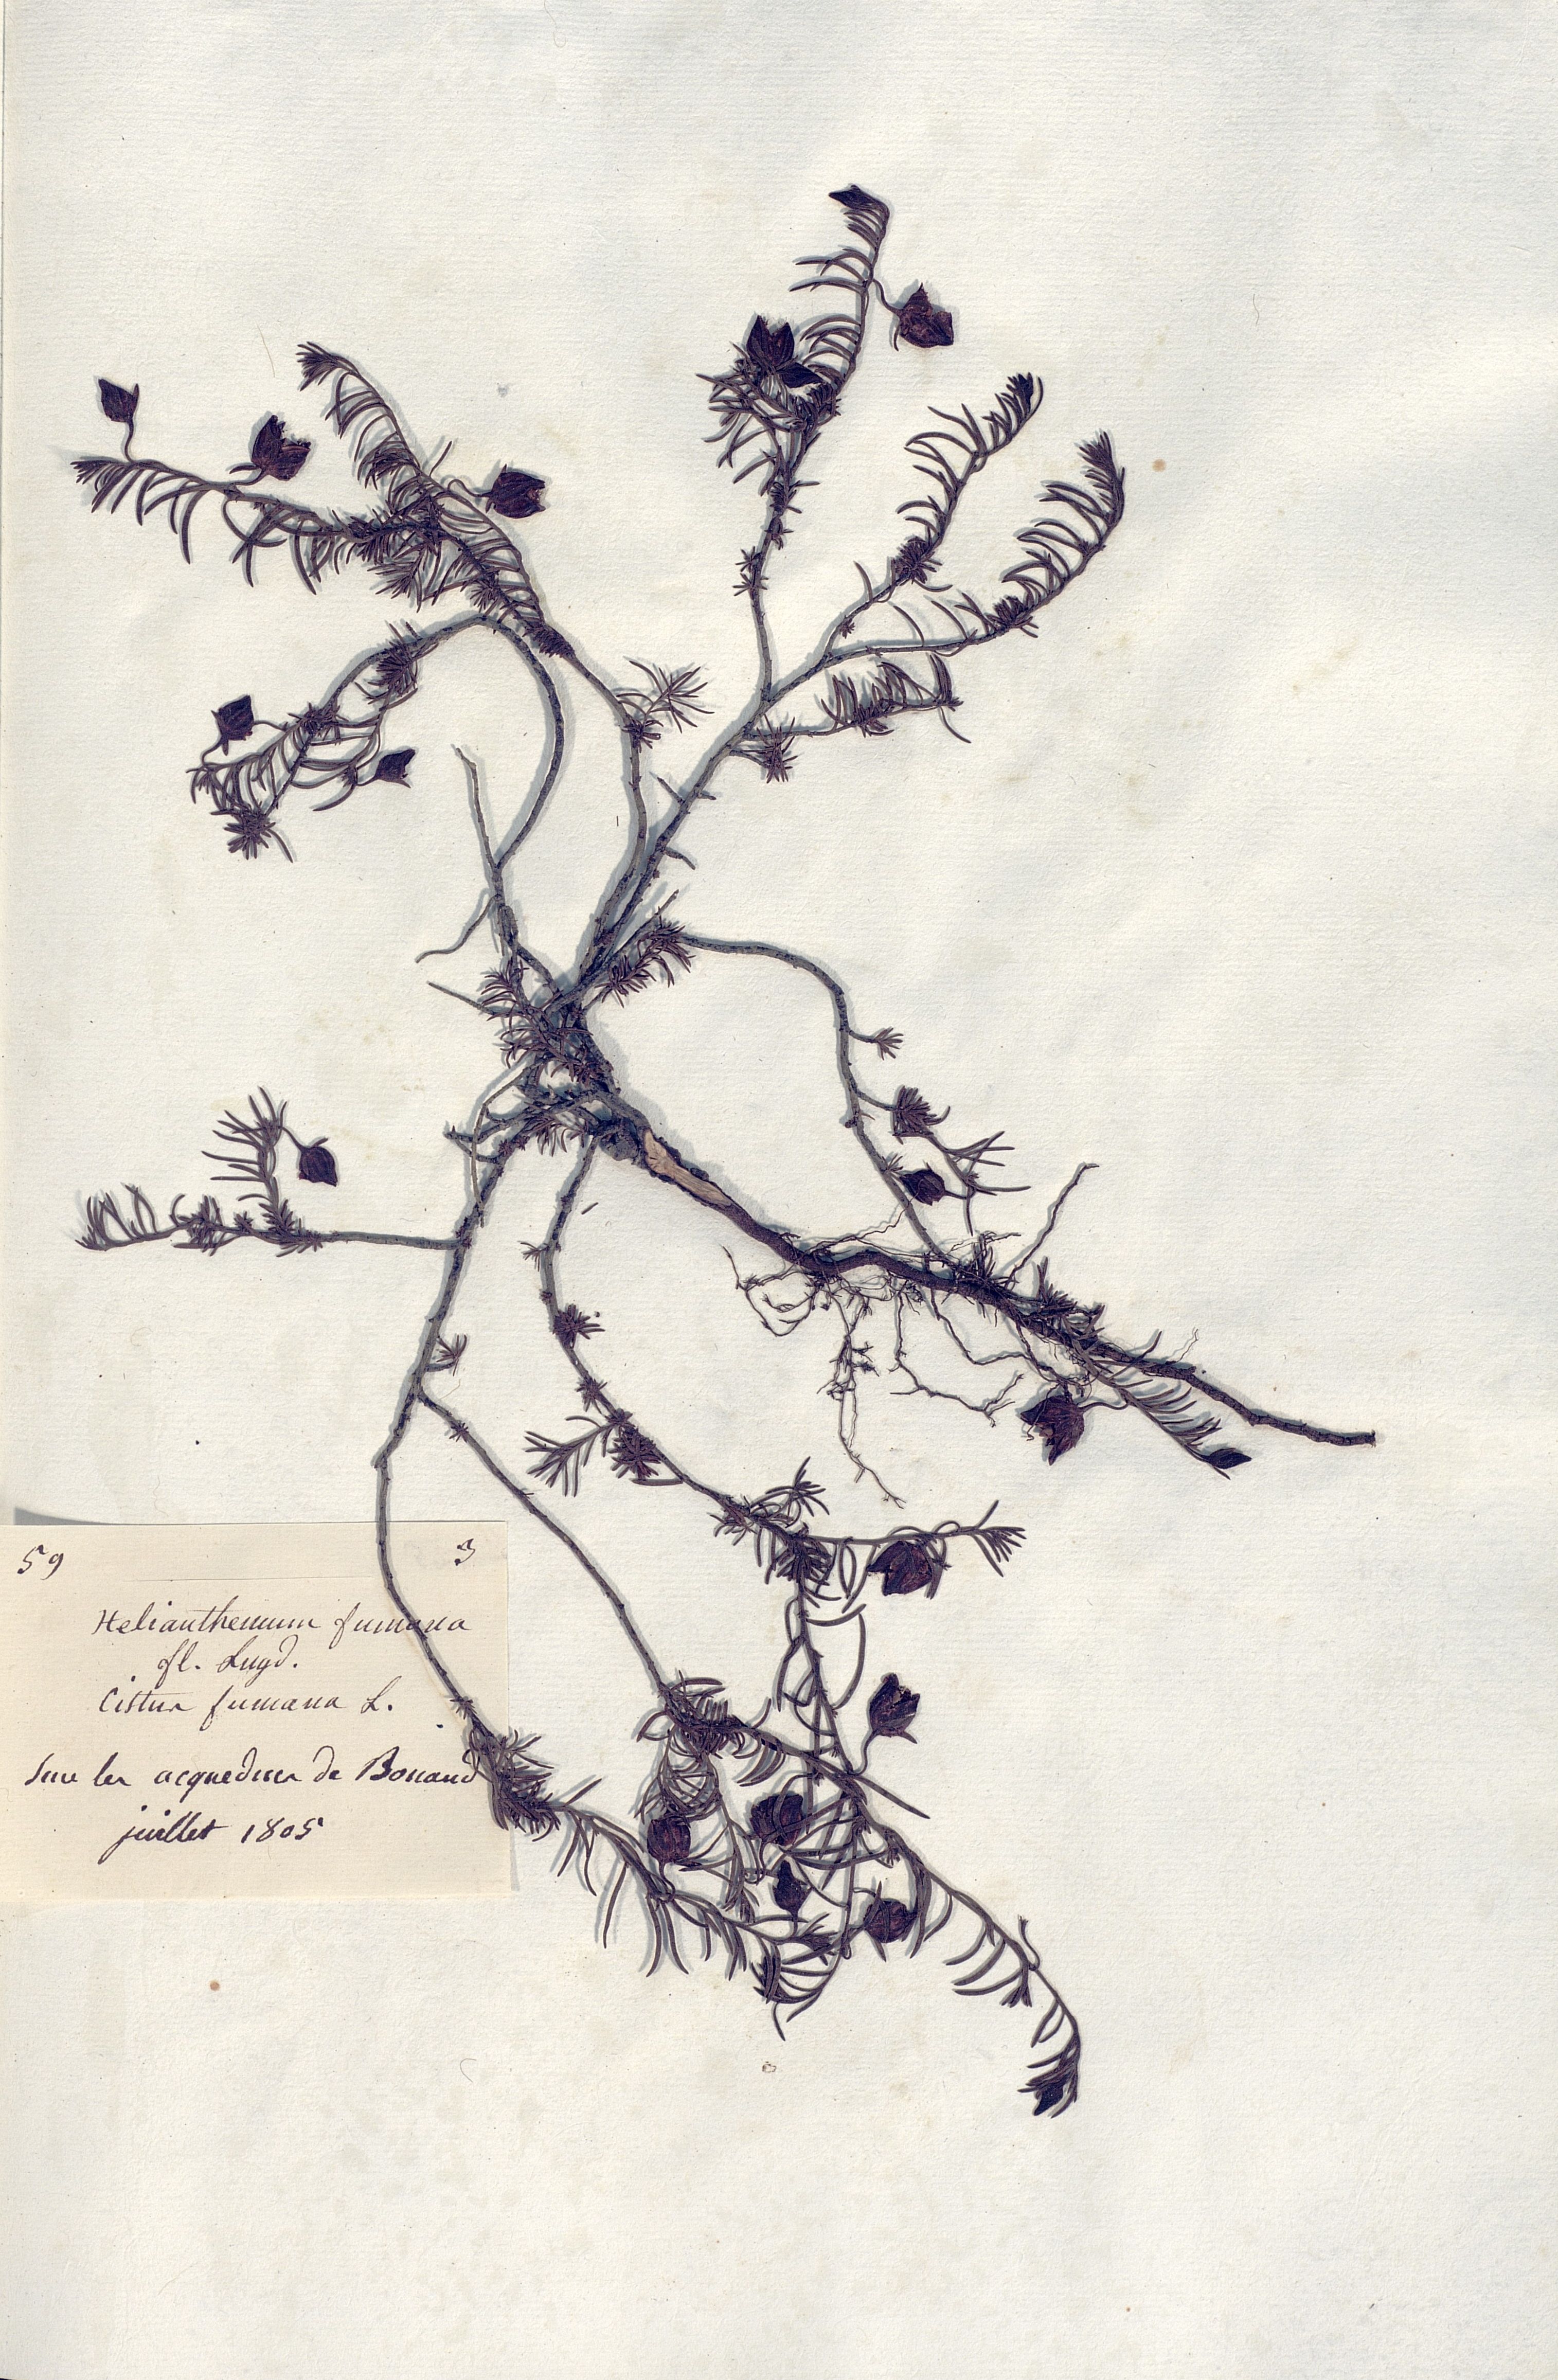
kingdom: Plantae
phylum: Tracheophyta
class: Magnoliopsida
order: Malvales
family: Cistaceae
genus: Fumana
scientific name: Fumana procumbens
